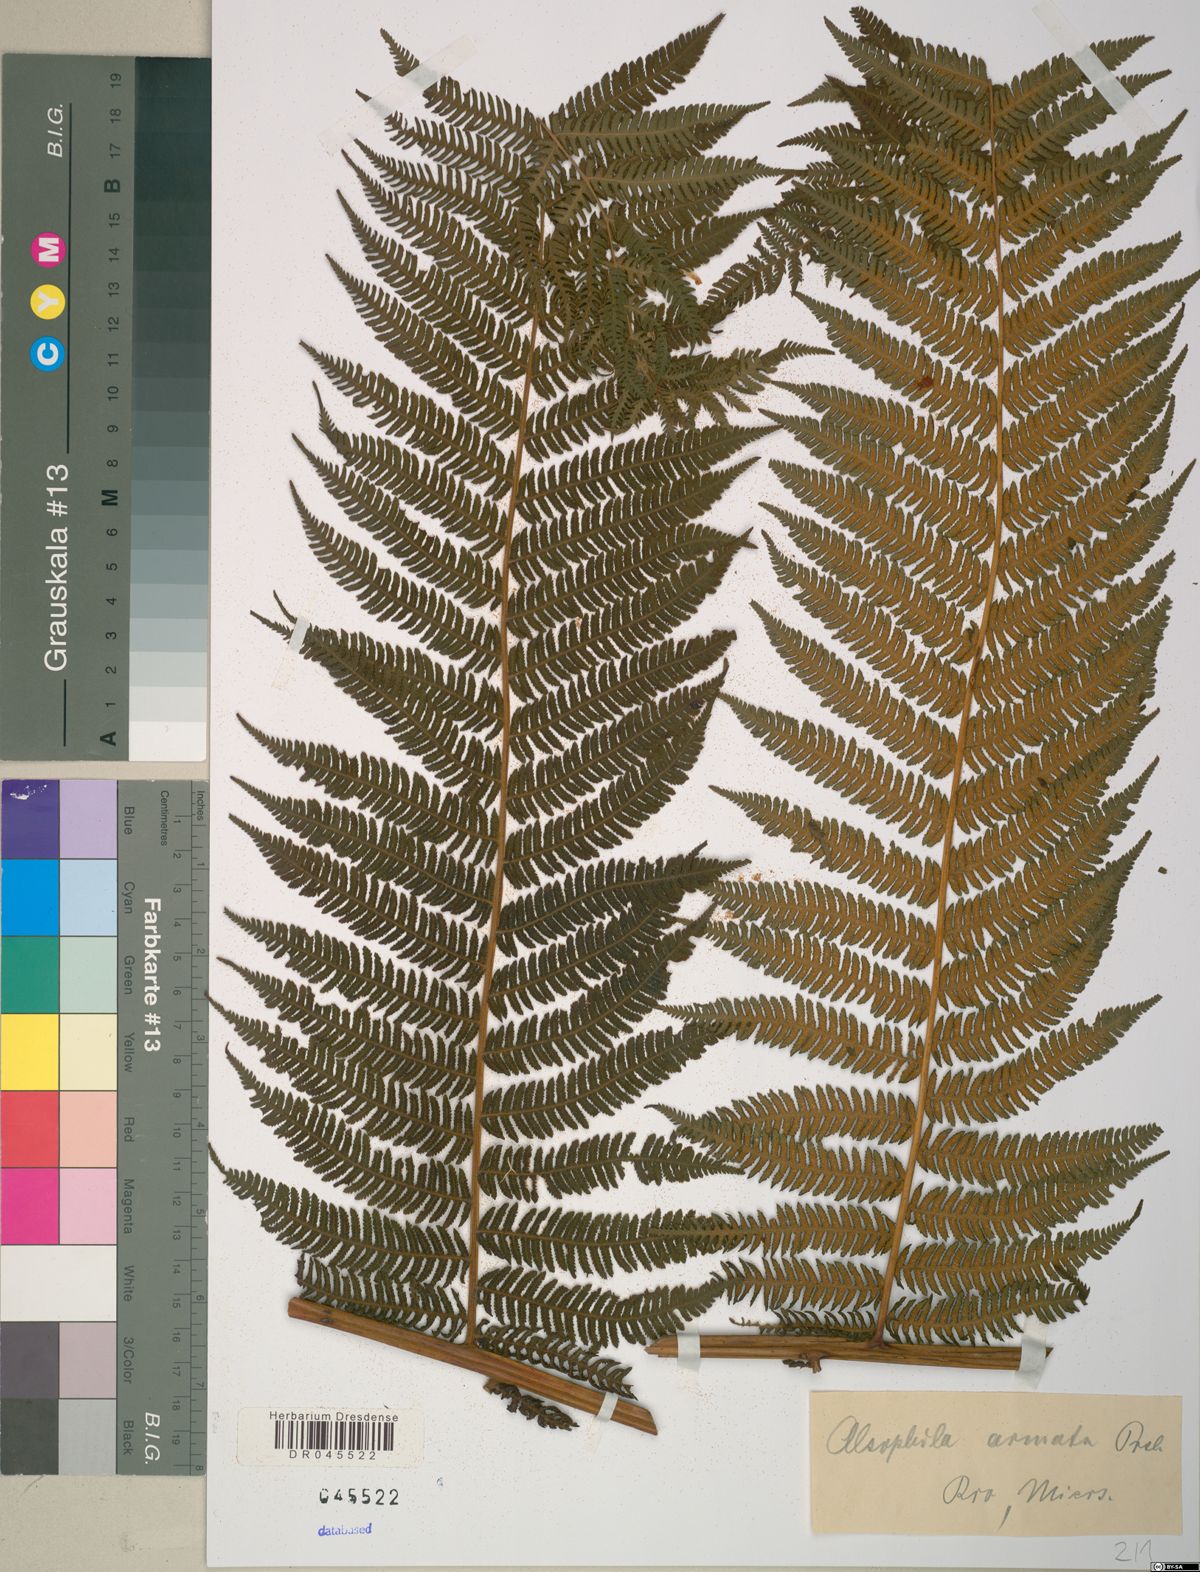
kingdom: Plantae
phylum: Tracheophyta
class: Polypodiopsida
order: Cyatheales
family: Cyatheaceae
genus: Cyathea
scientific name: Cyathea microdonta
